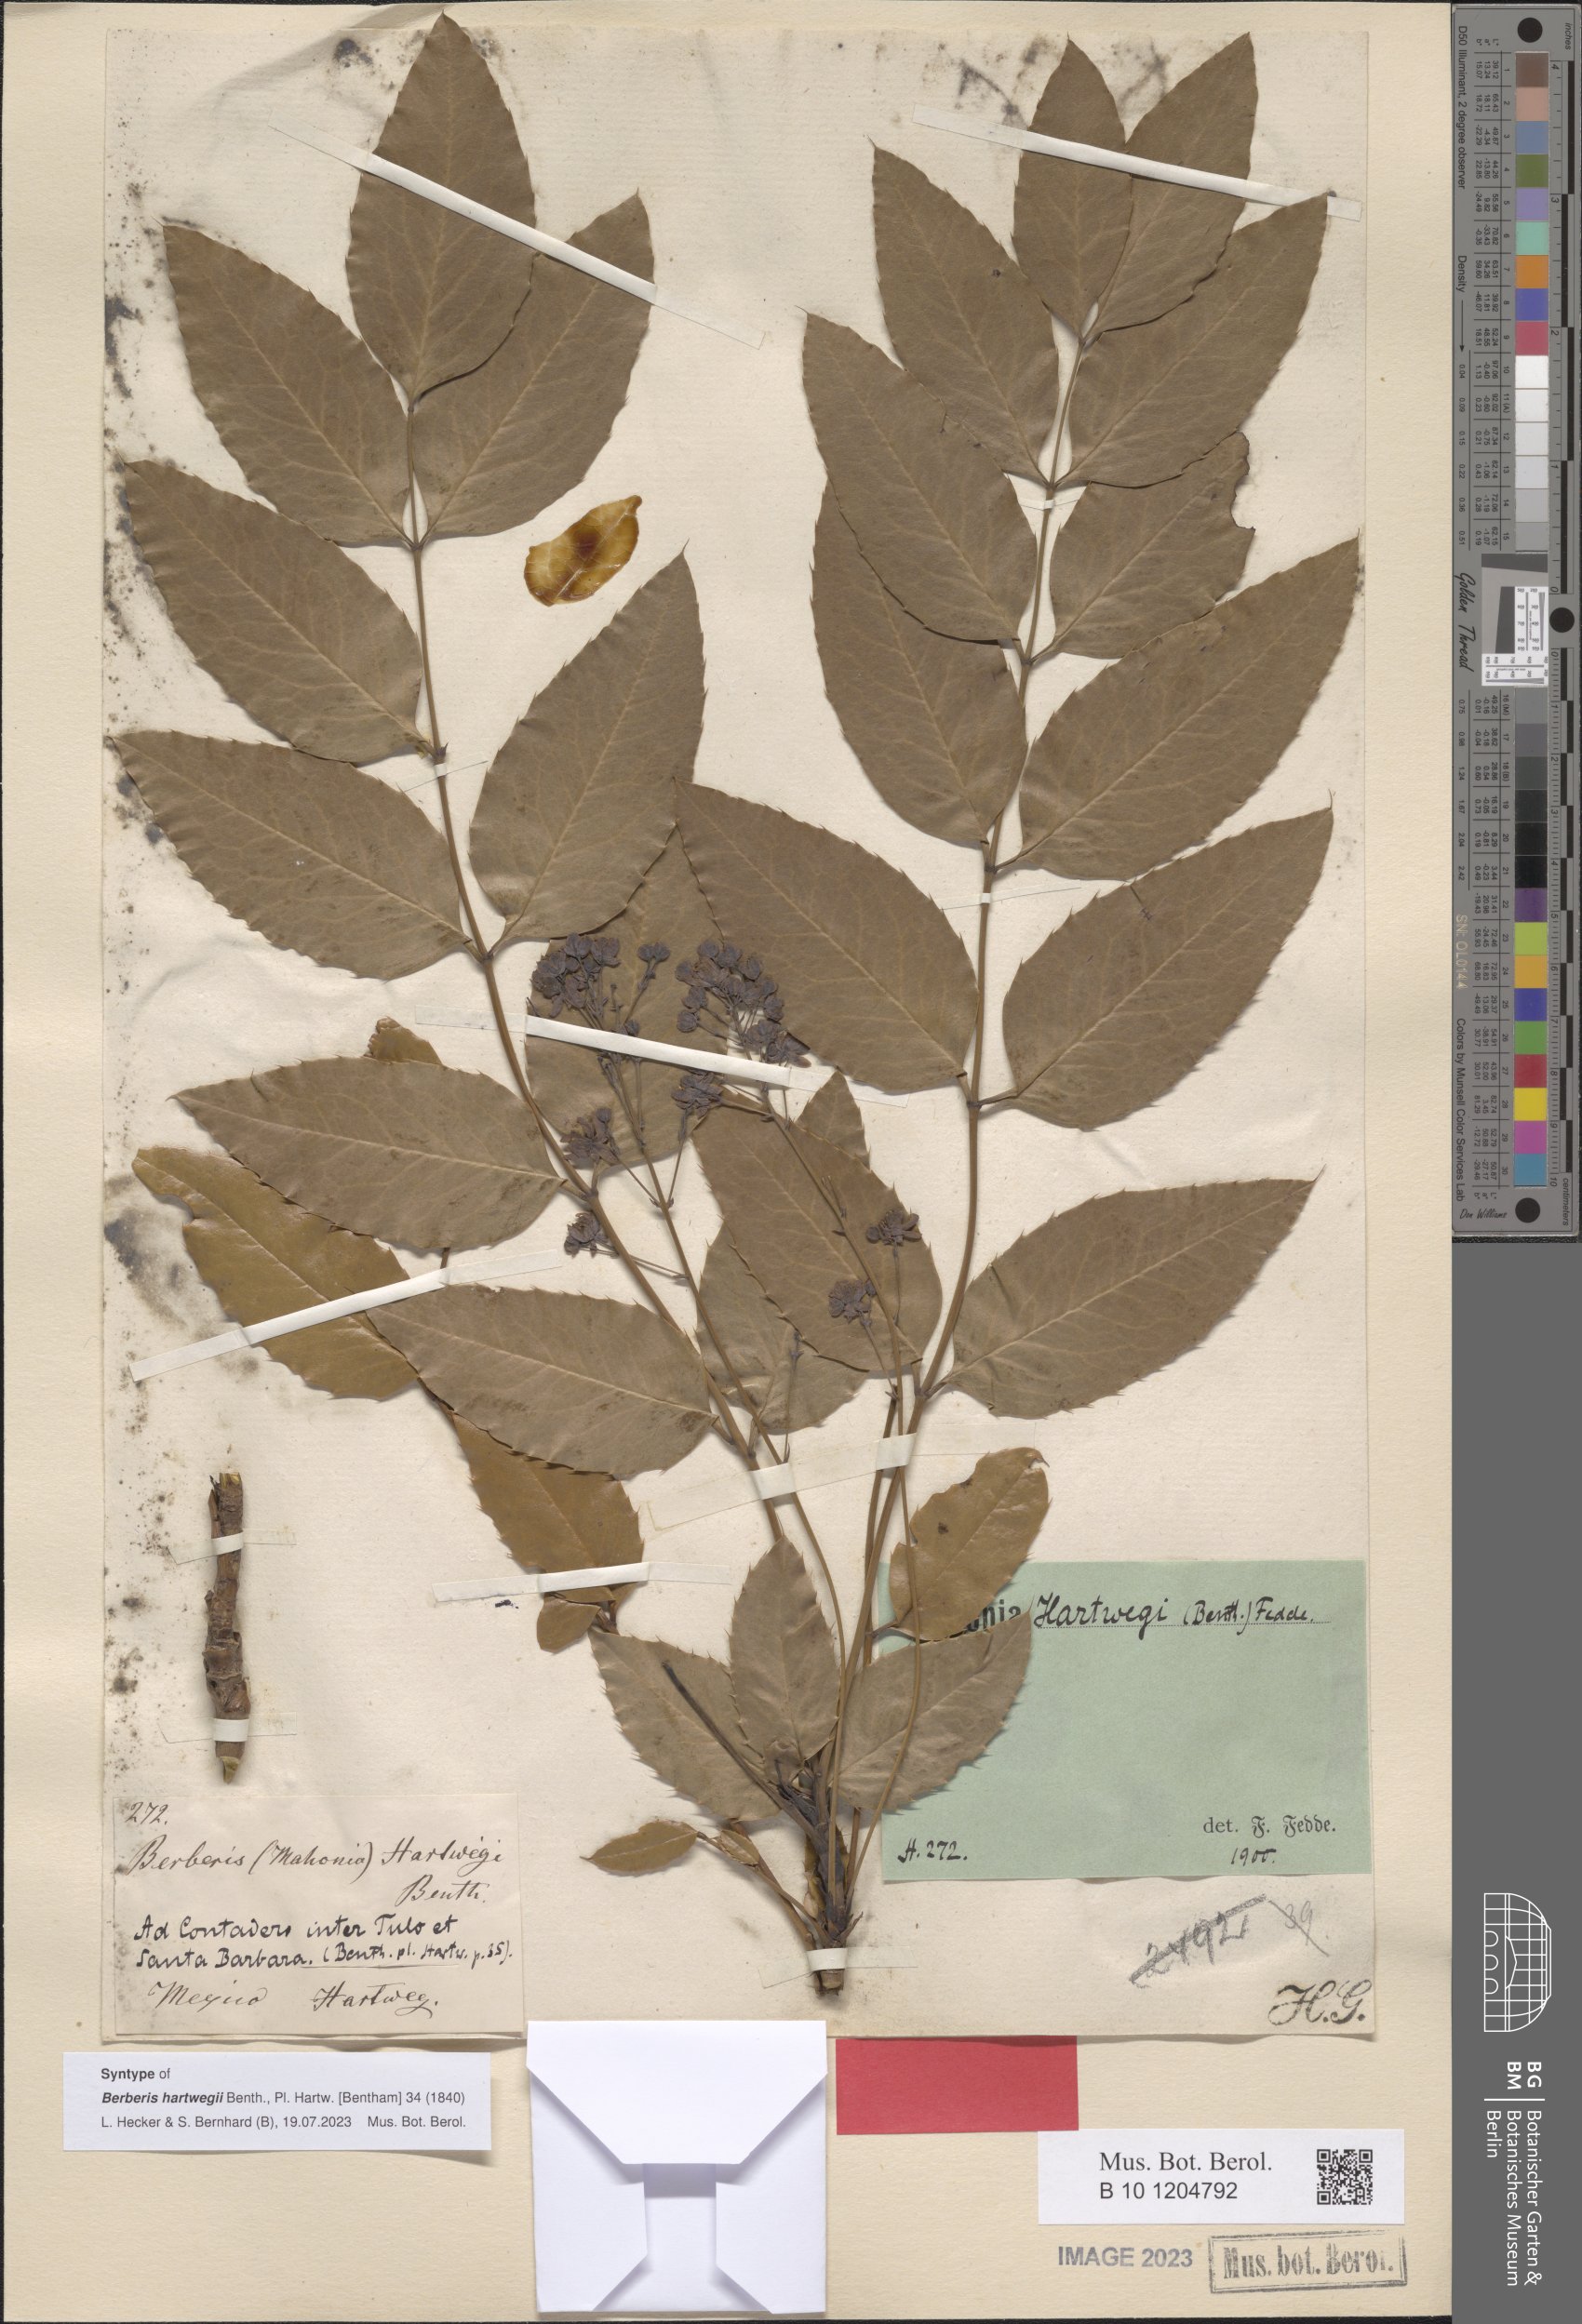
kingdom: Plantae
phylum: Tracheophyta
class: Magnoliopsida
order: Ranunculales
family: Berberidaceae
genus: Mahonia
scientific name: Mahonia hartwegii
